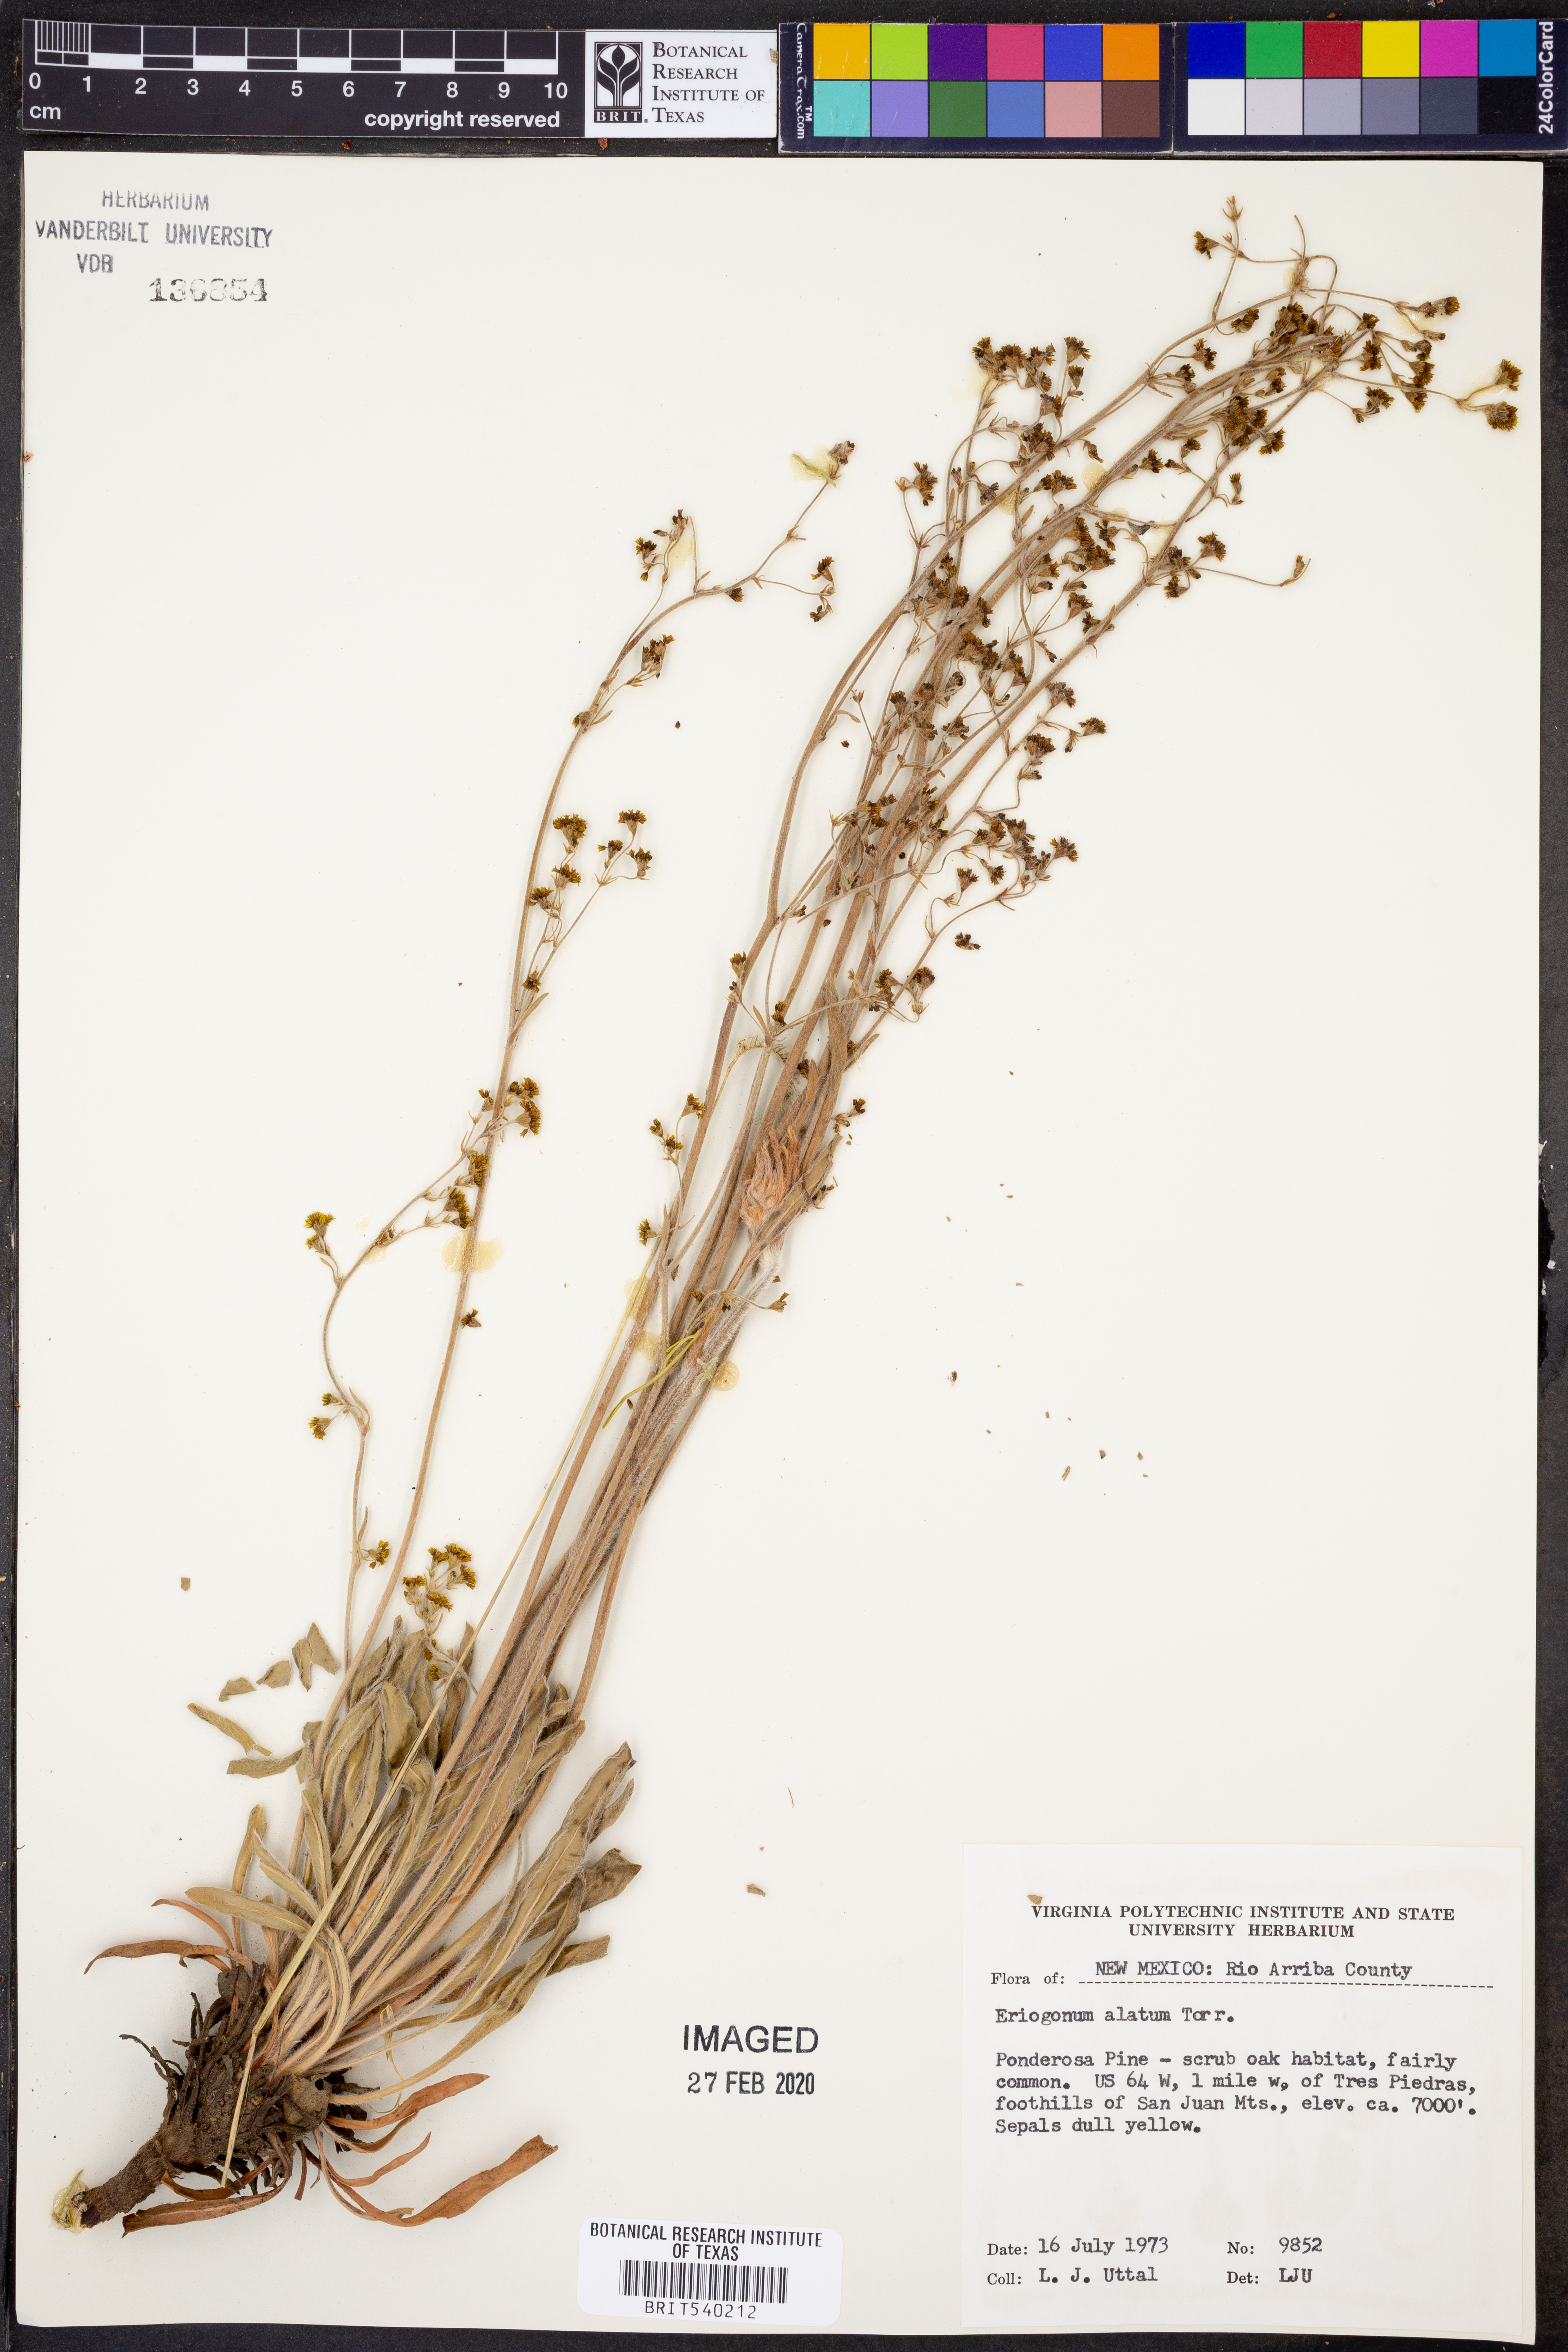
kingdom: Plantae
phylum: Tracheophyta
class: Magnoliopsida
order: Caryophyllales
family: Polygonaceae
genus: Eriogonum
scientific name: Eriogonum alatum
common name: Winged eriogonum
